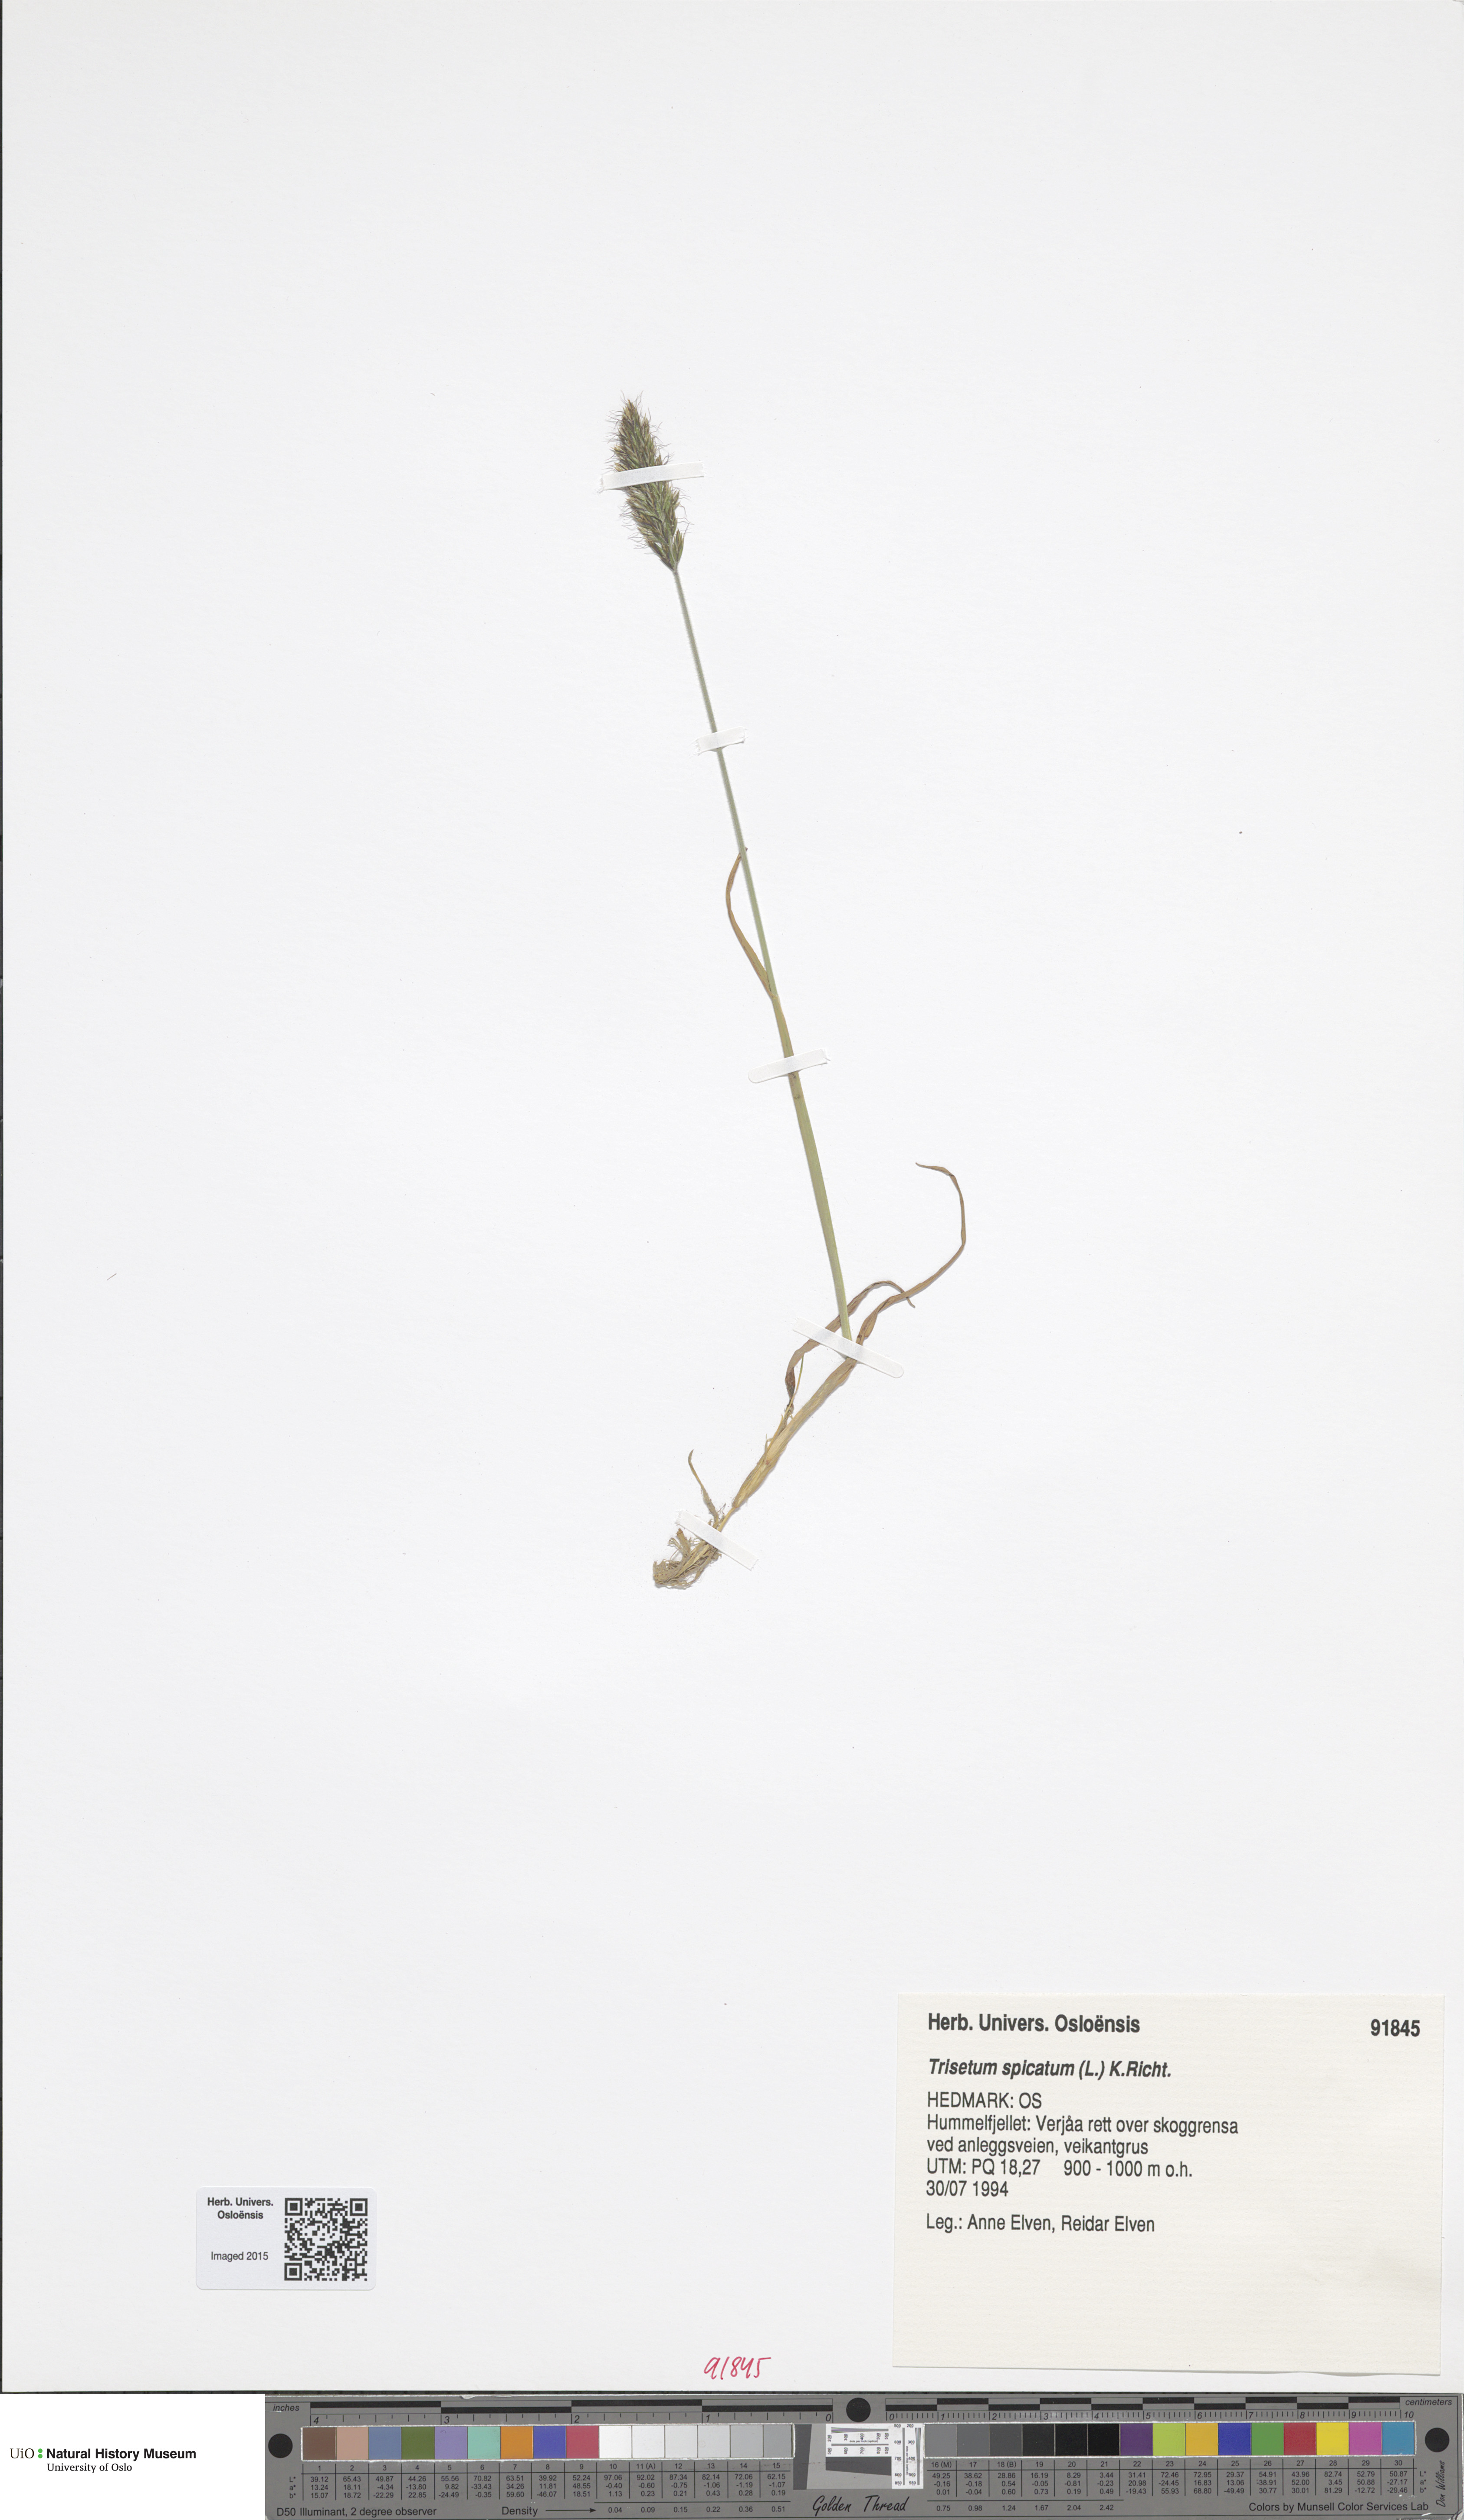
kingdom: Plantae
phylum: Tracheophyta
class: Liliopsida
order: Poales
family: Poaceae
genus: Koeleria
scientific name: Koeleria spicata
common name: Mountain trisetum
